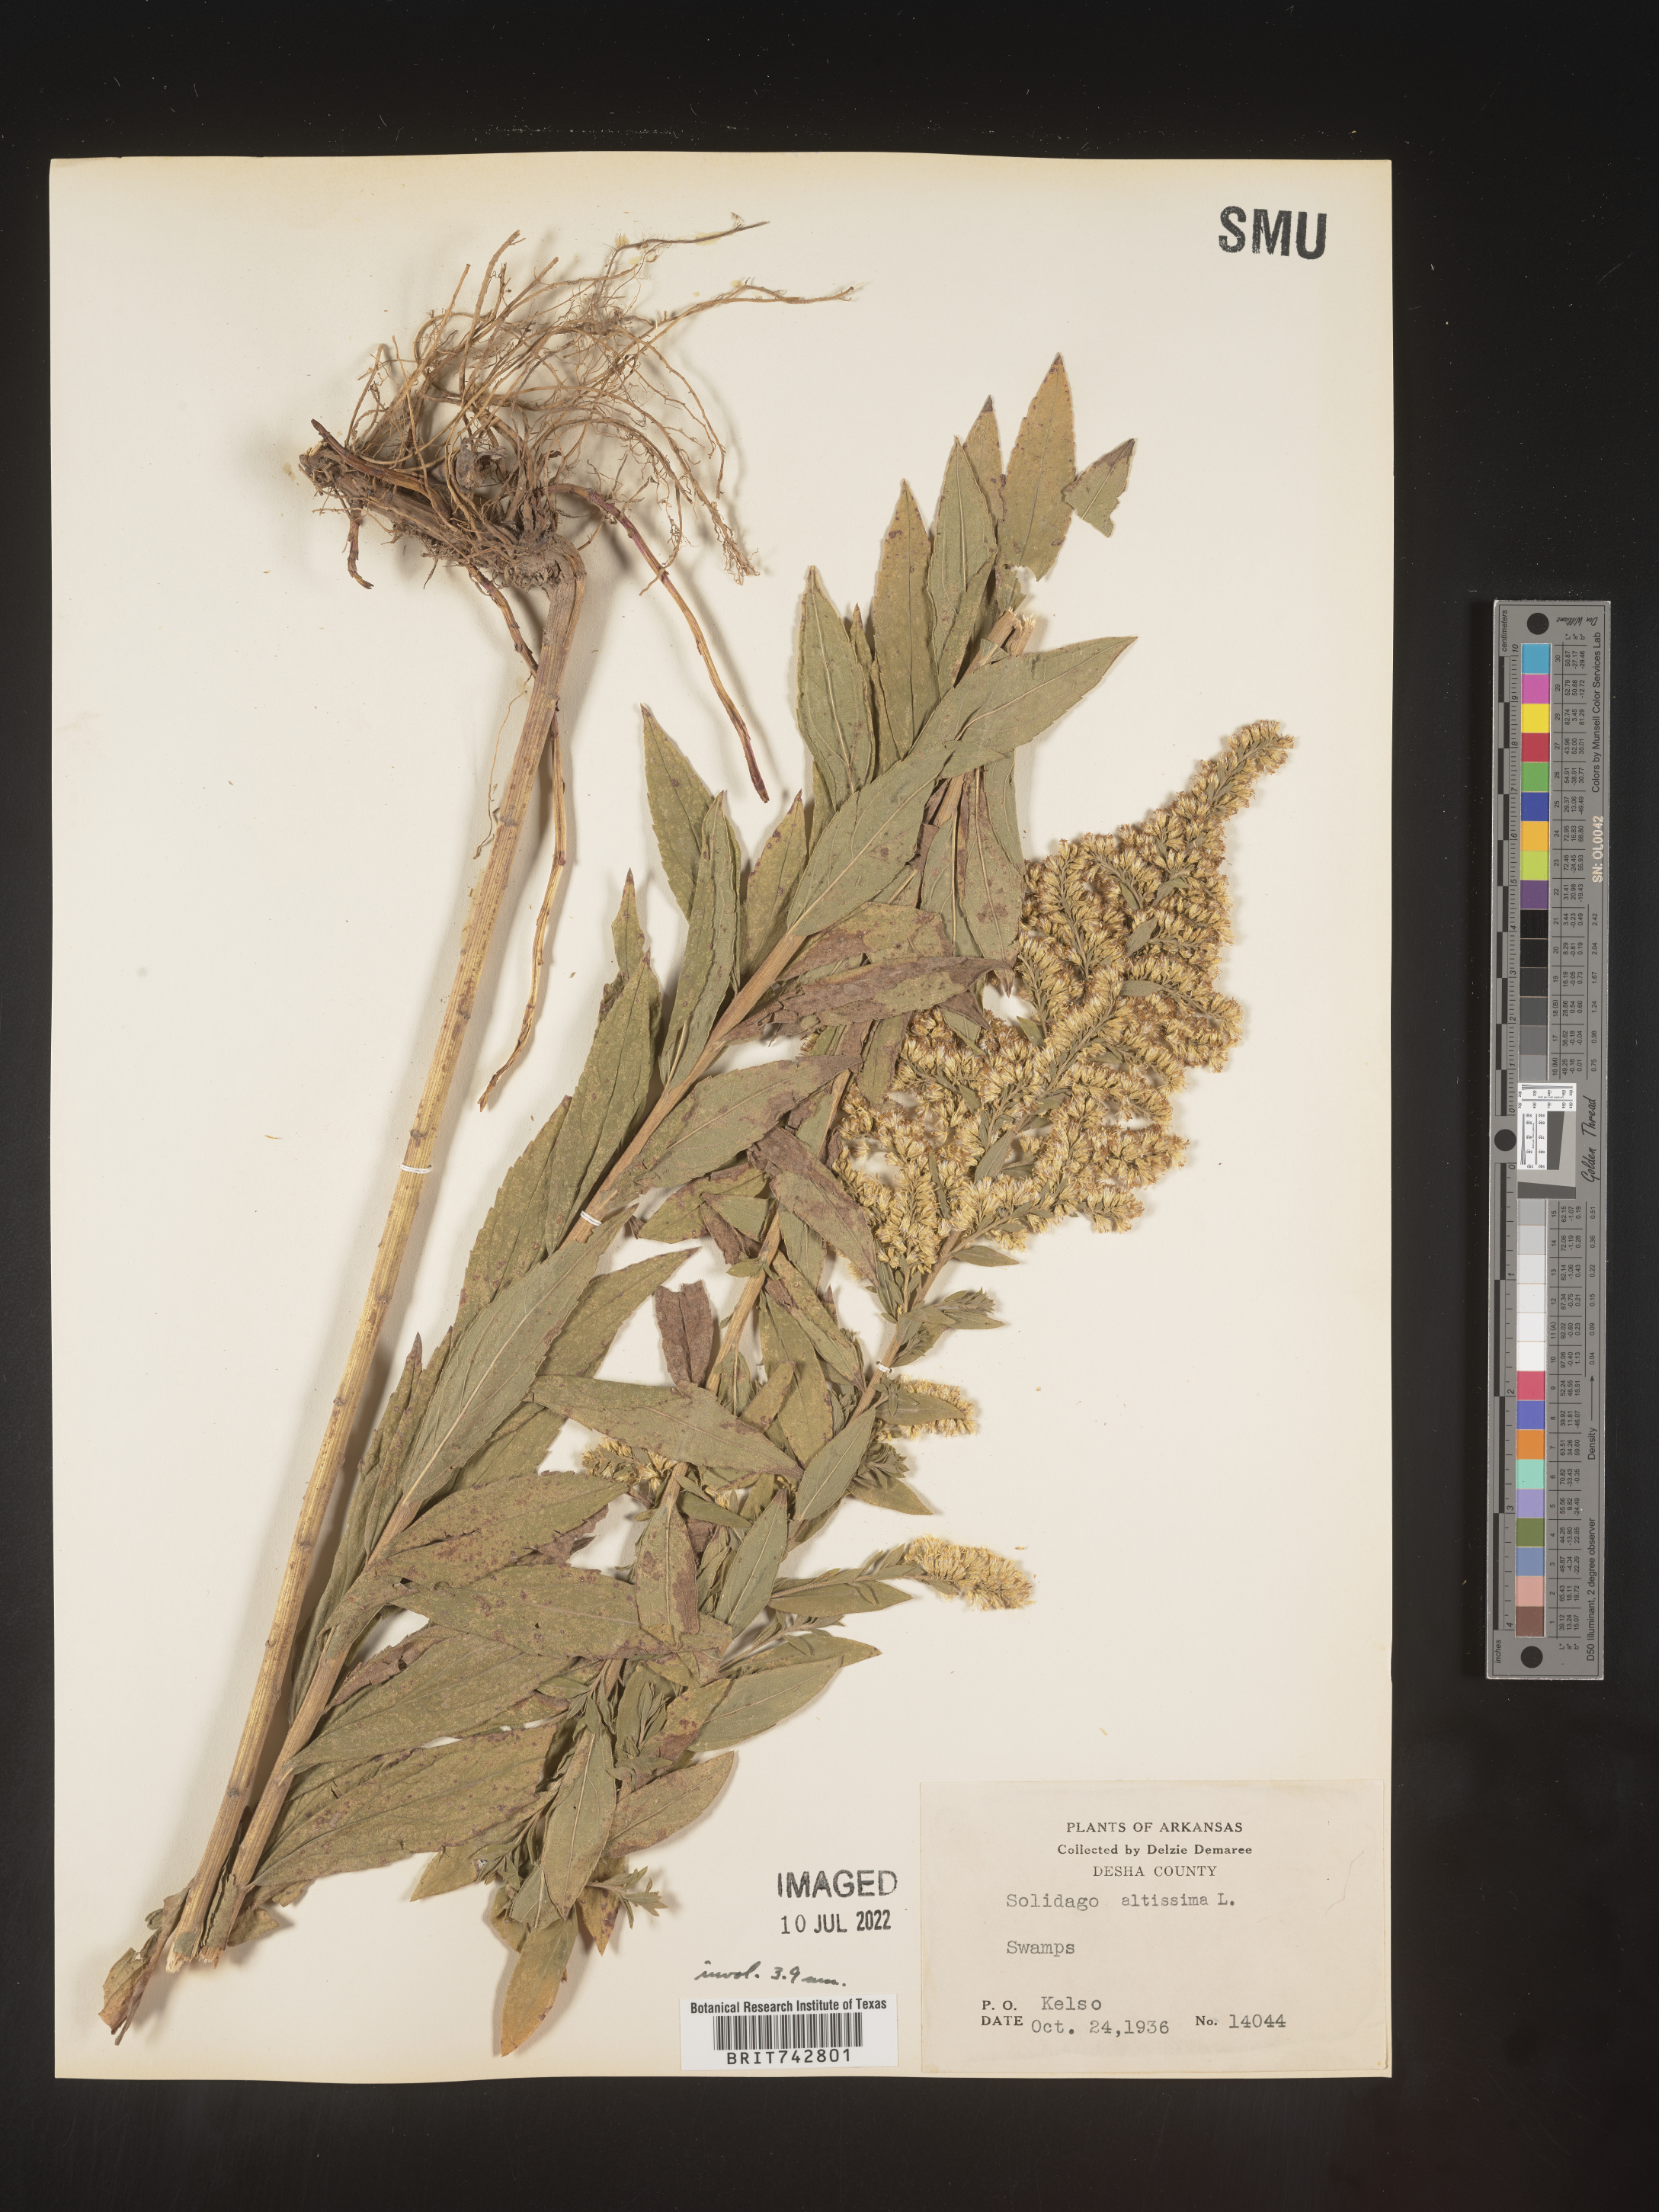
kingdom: Plantae
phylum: Tracheophyta
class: Magnoliopsida
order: Asterales
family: Asteraceae
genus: Solidago
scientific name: Solidago altissima
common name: Late goldenrod
